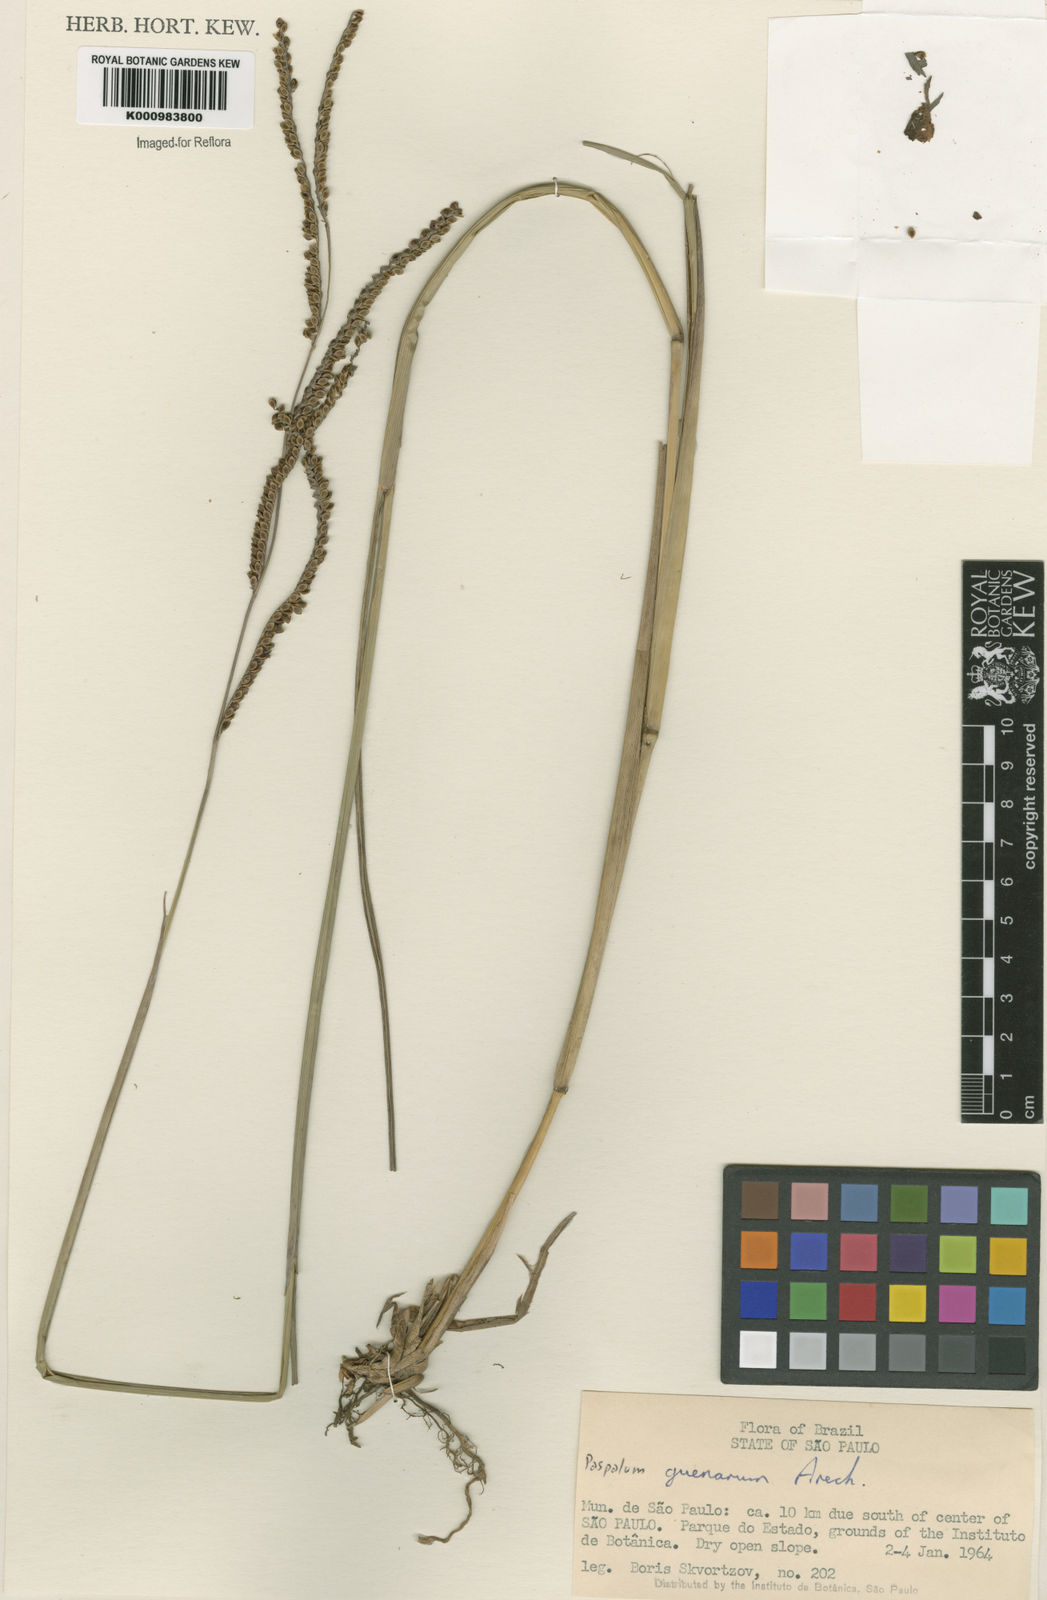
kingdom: Plantae
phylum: Tracheophyta
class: Liliopsida
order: Poales
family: Poaceae
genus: Paspalum
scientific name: Paspalum plicatulum
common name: Top paspalum
